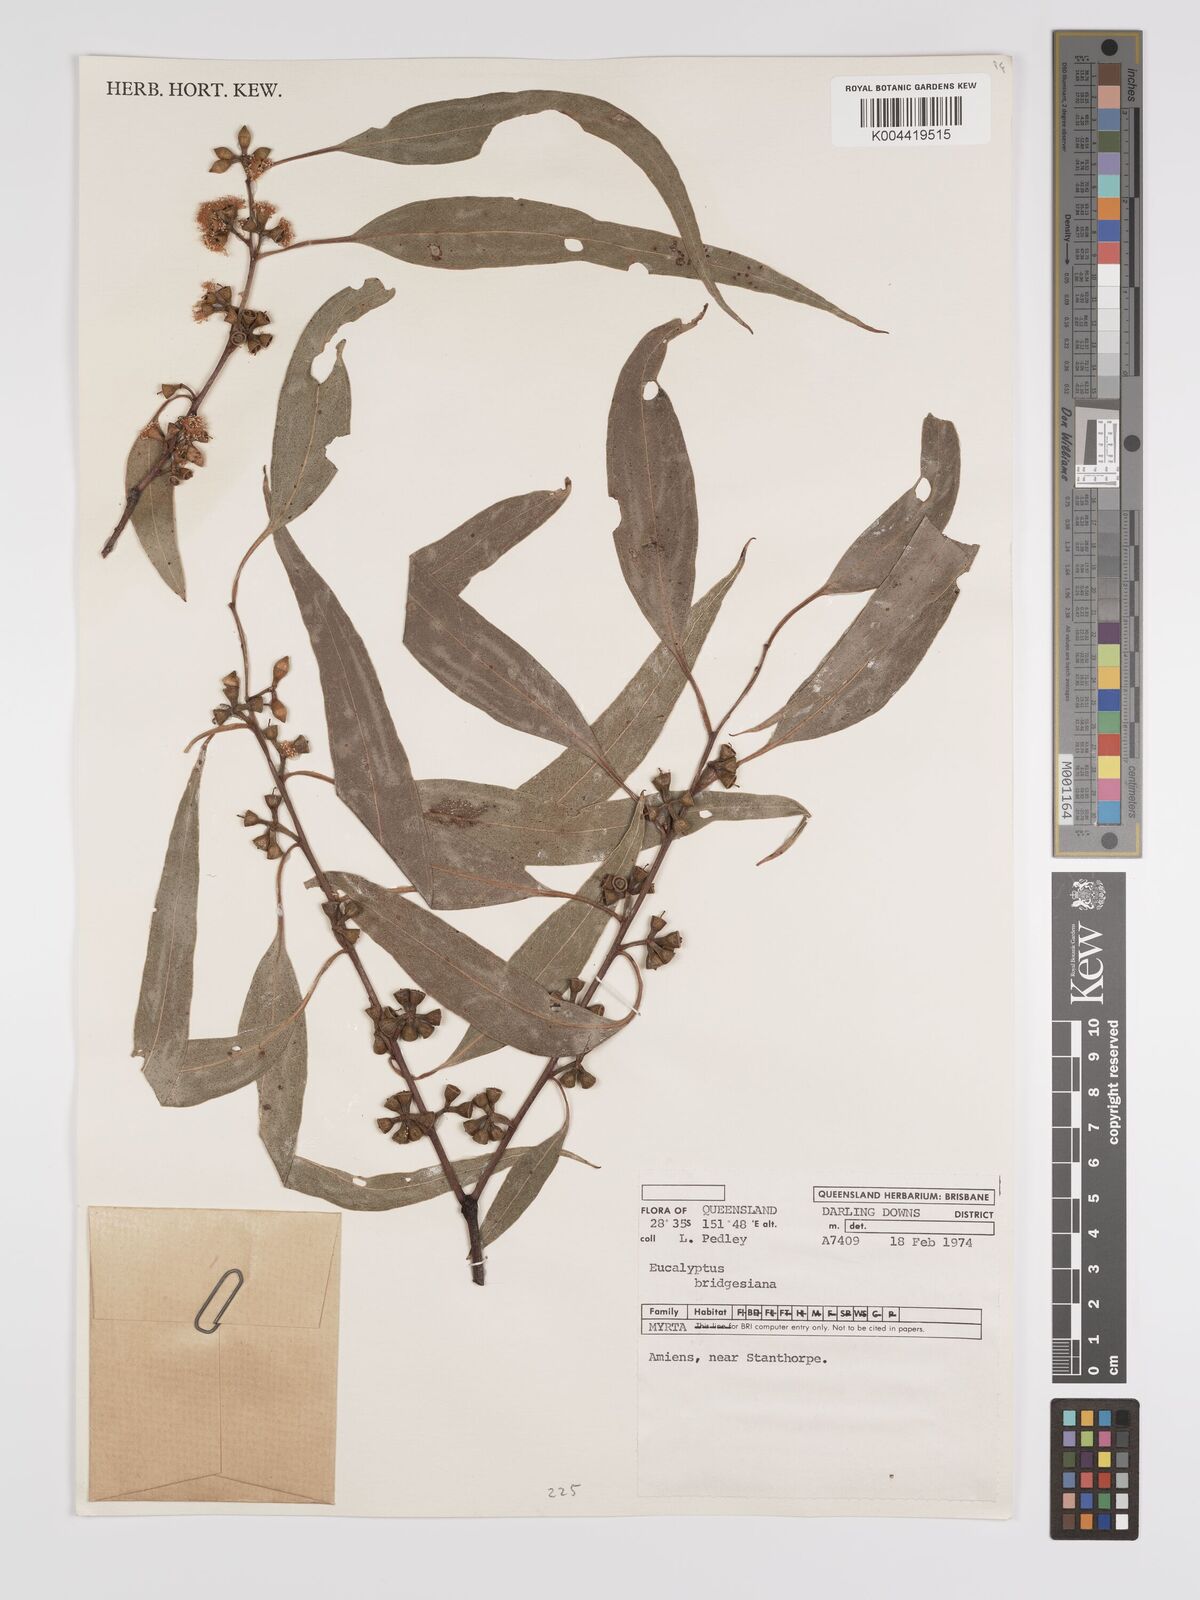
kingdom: Plantae
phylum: Tracheophyta
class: Magnoliopsida
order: Myrtales
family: Myrtaceae
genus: Eucalyptus
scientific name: Eucalyptus ovata
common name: Black-gum
